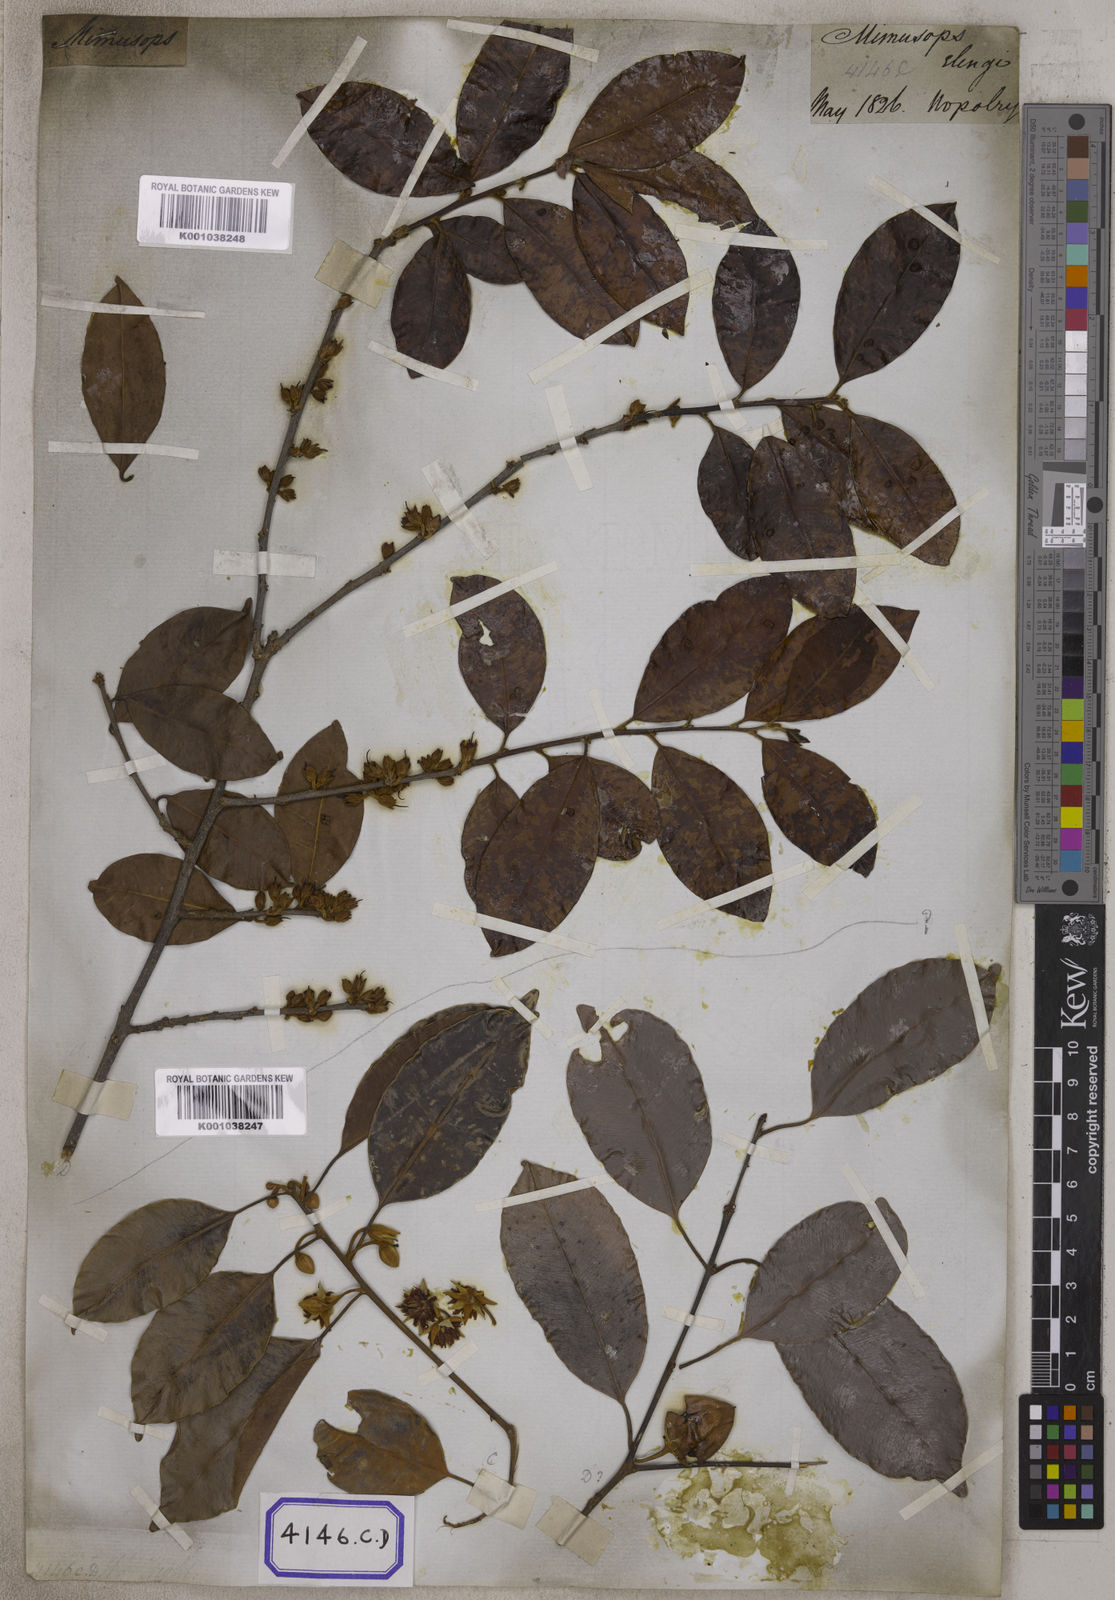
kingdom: Plantae
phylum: Tracheophyta
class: Magnoliopsida
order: Ericales
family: Sapotaceae
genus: Mimusops
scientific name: Mimusops
